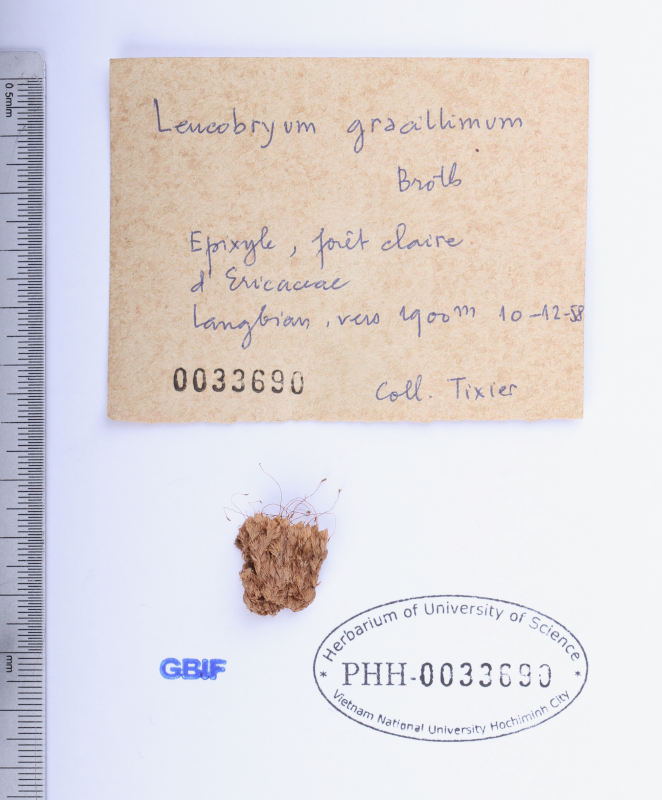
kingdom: Plantae
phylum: Bryophyta
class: Bryopsida
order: Dicranales
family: Leucobryaceae
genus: Leucobryum
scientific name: Leucobryum gracillimum
